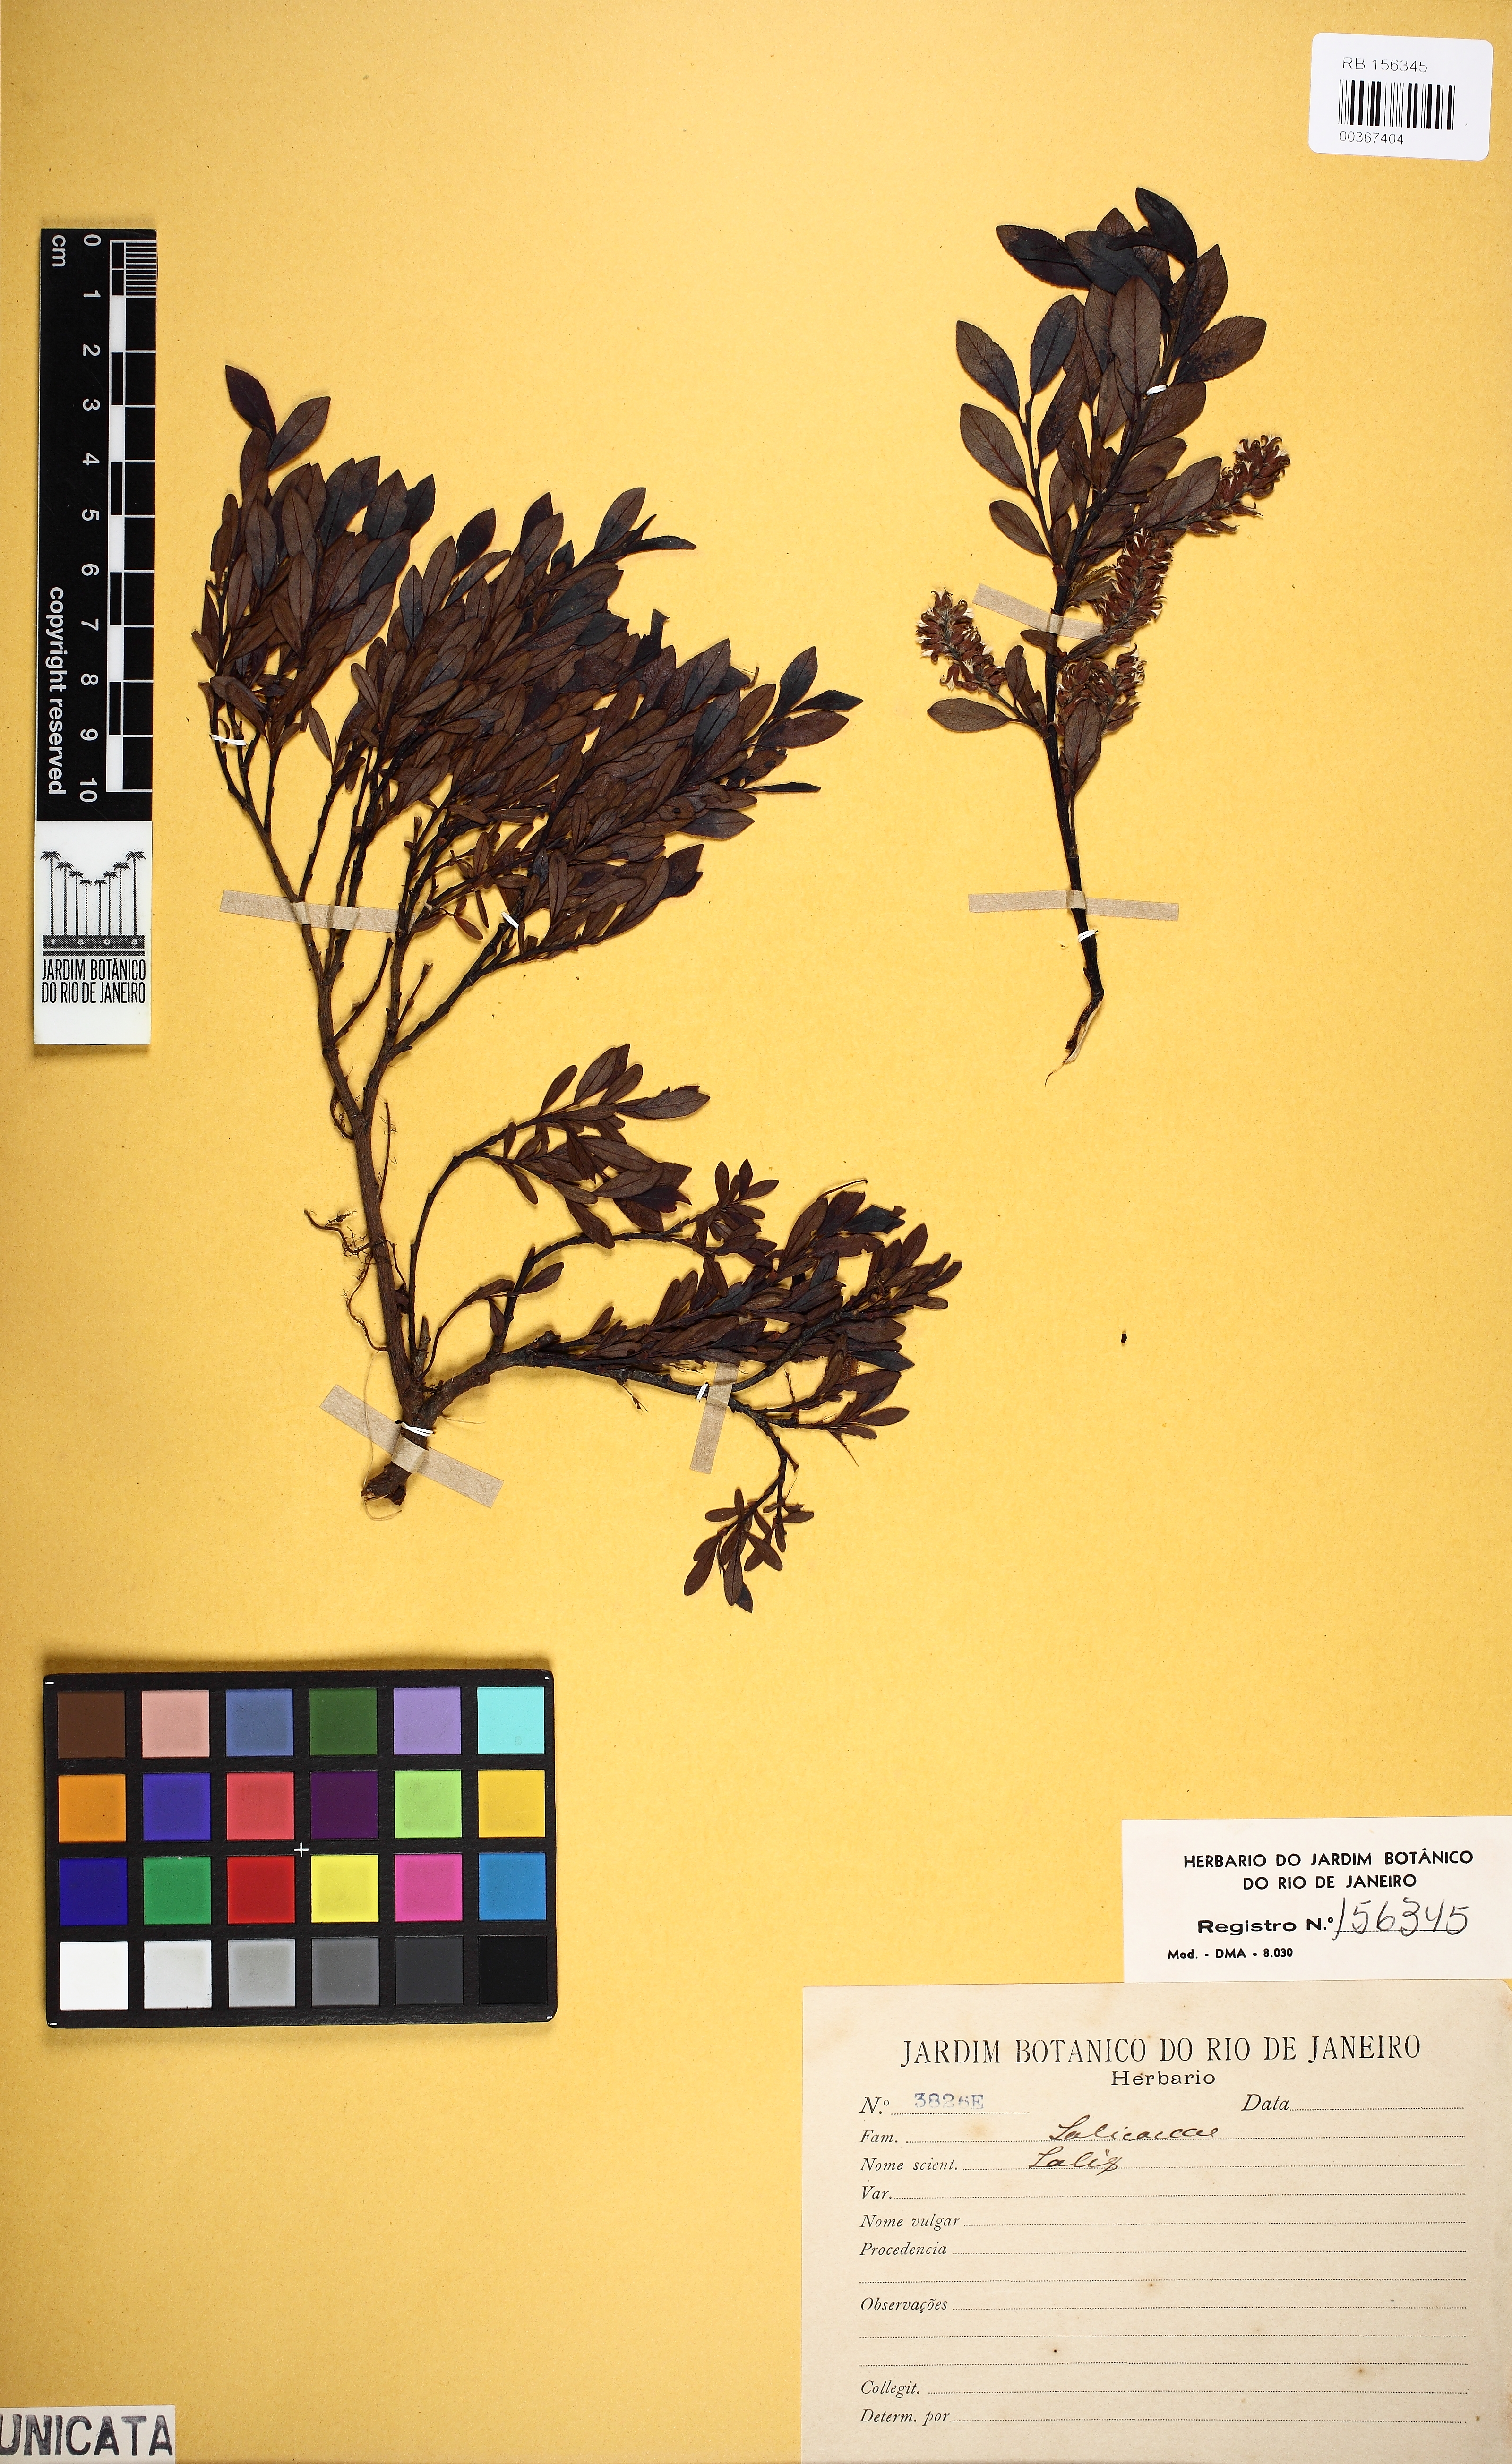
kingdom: Plantae
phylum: Tracheophyta
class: Magnoliopsida
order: Malpighiales
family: Salicaceae
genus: Salix
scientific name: Salix
